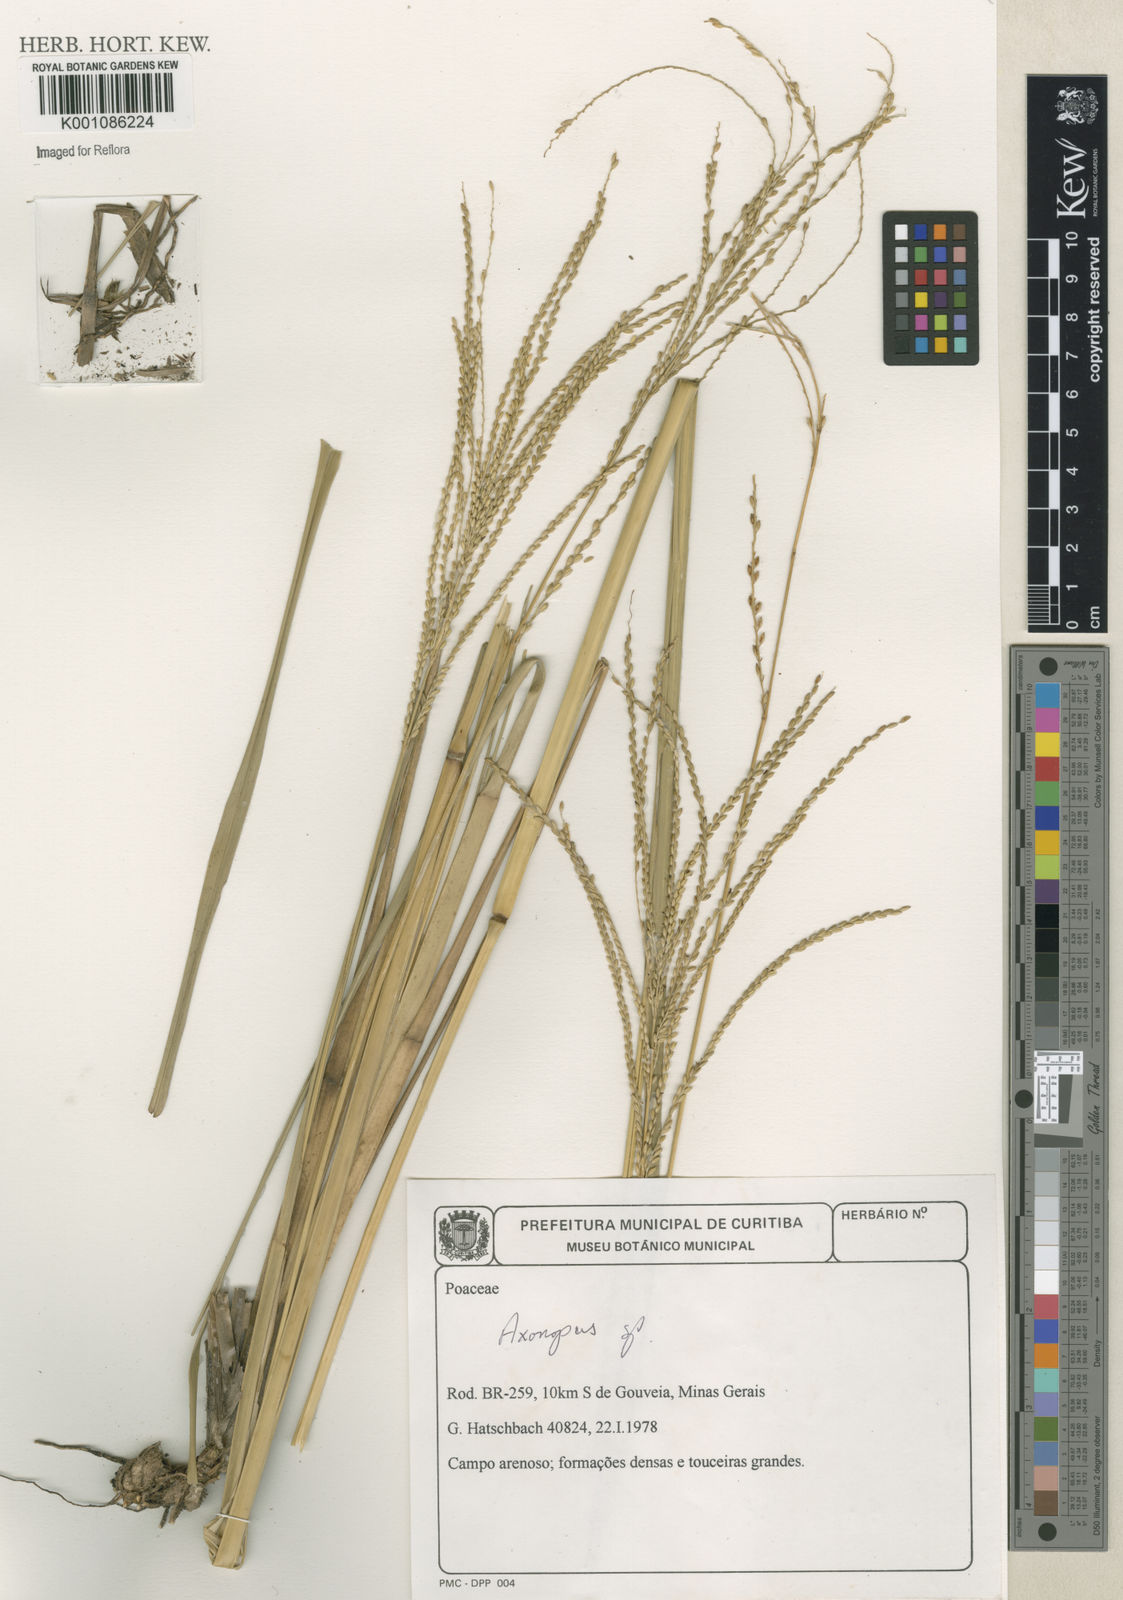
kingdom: Plantae
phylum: Tracheophyta
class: Liliopsida
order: Poales
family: Poaceae
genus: Axonopus
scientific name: Axonopus
